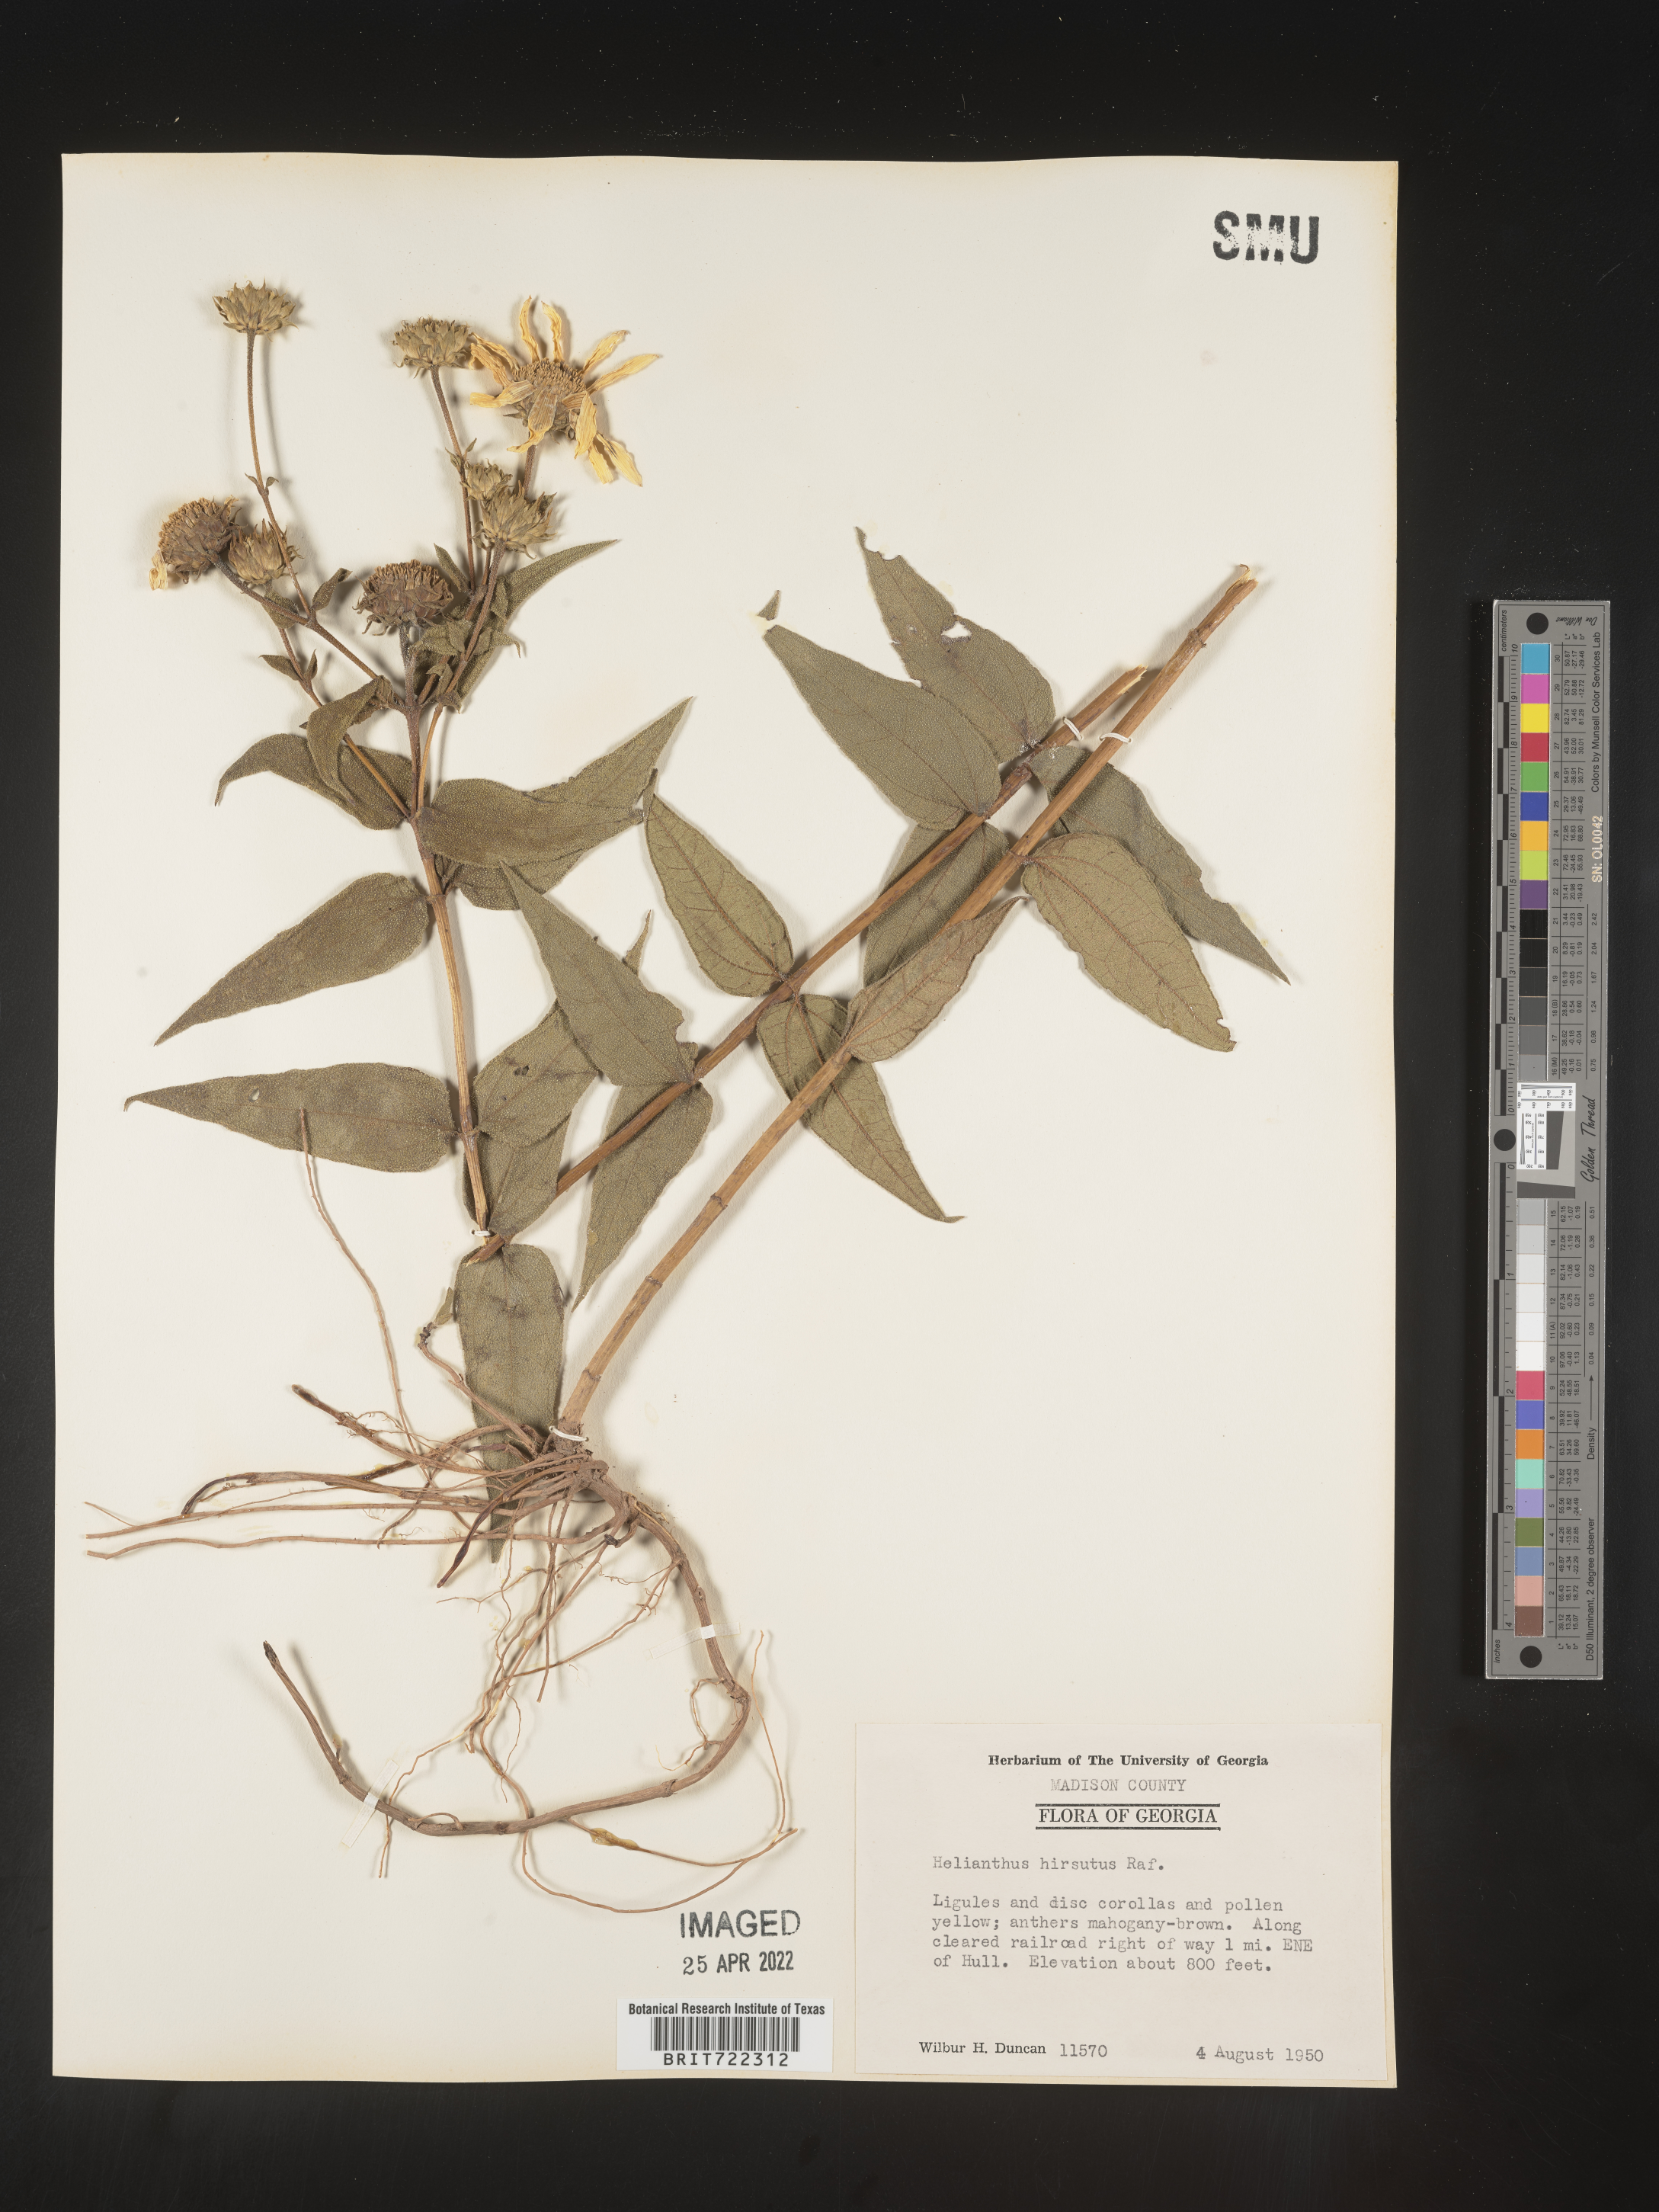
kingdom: Plantae
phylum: Tracheophyta
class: Magnoliopsida
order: Asterales
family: Asteraceae
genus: Helianthus
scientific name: Helianthus hirsutus
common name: Hairy sunflower
